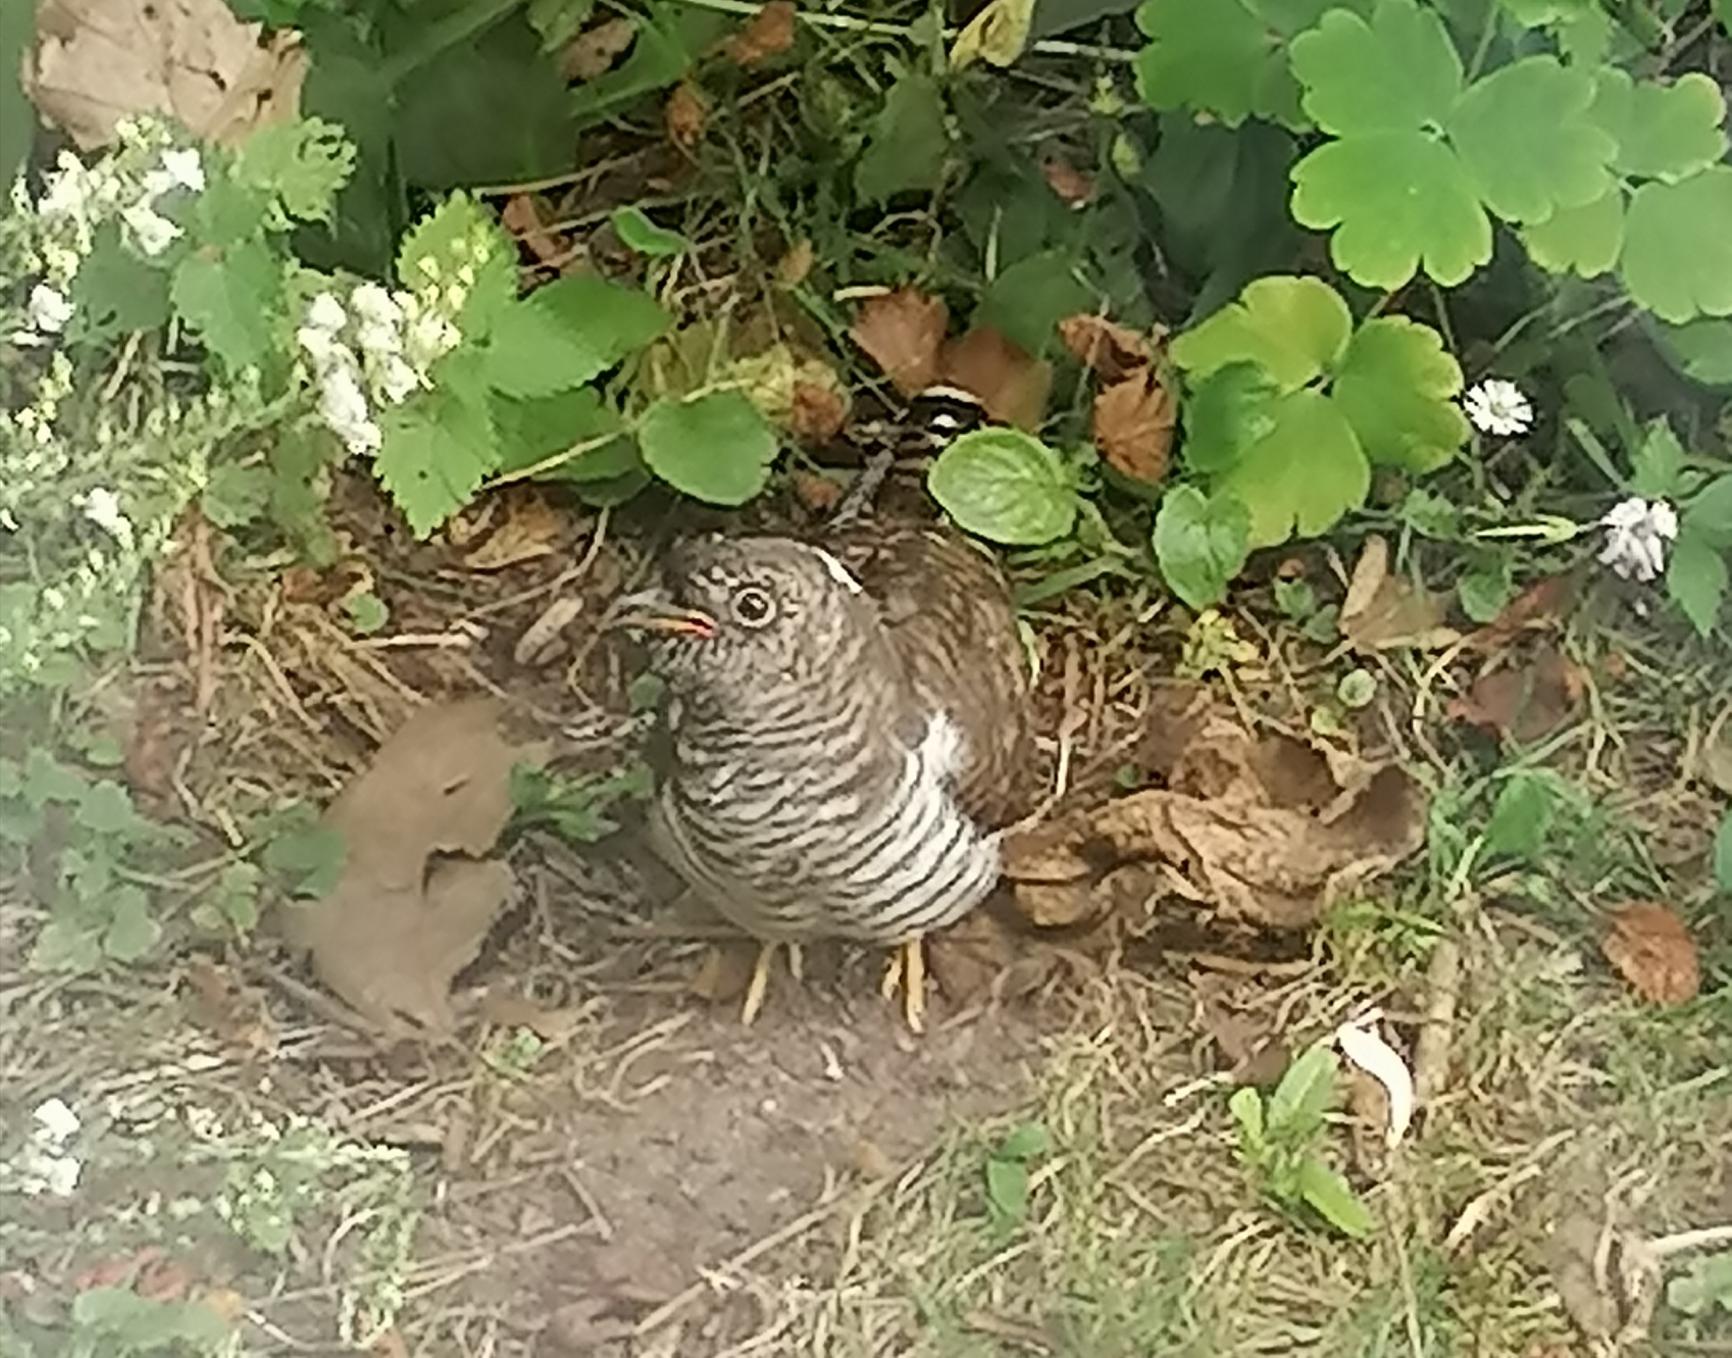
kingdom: Animalia
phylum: Chordata
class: Aves
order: Cuculiformes
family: Cuculidae
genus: Cuculus
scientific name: Cuculus canorus
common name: Gøg
